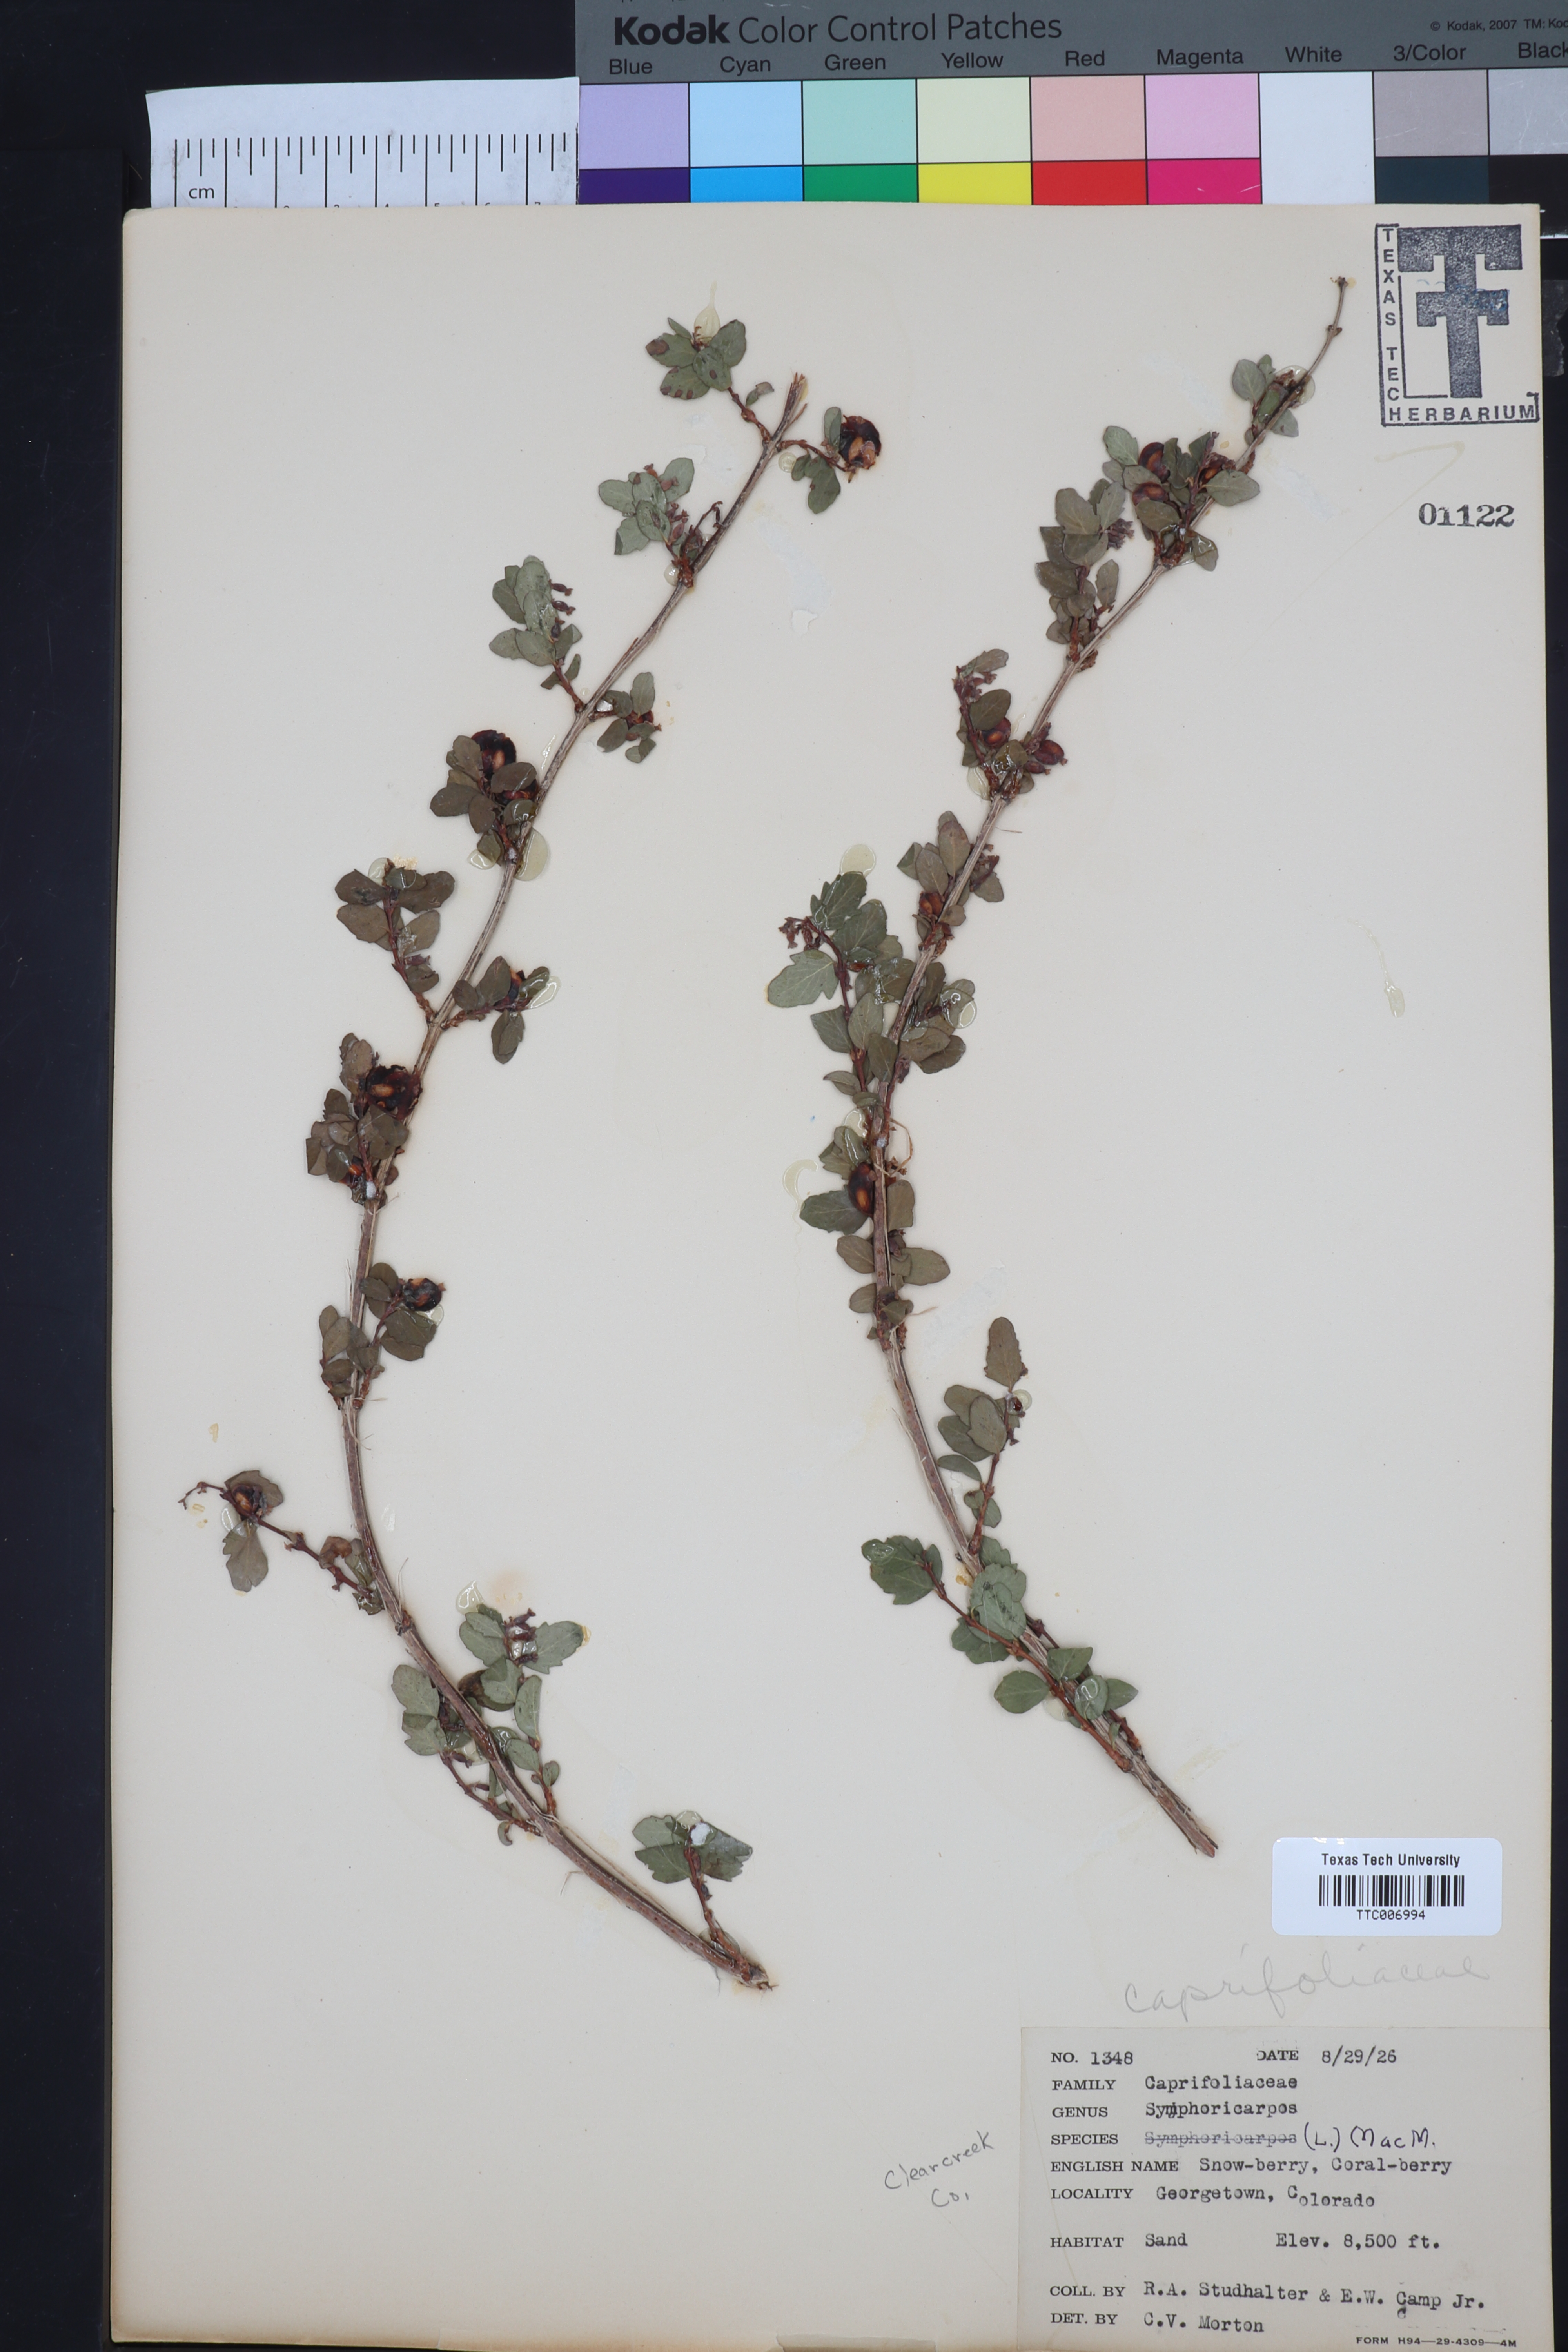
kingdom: Plantae
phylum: Tracheophyta
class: Magnoliopsida
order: Dipsacales
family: Caprifoliaceae
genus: Symphoricarpos
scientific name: Symphoricarpos
